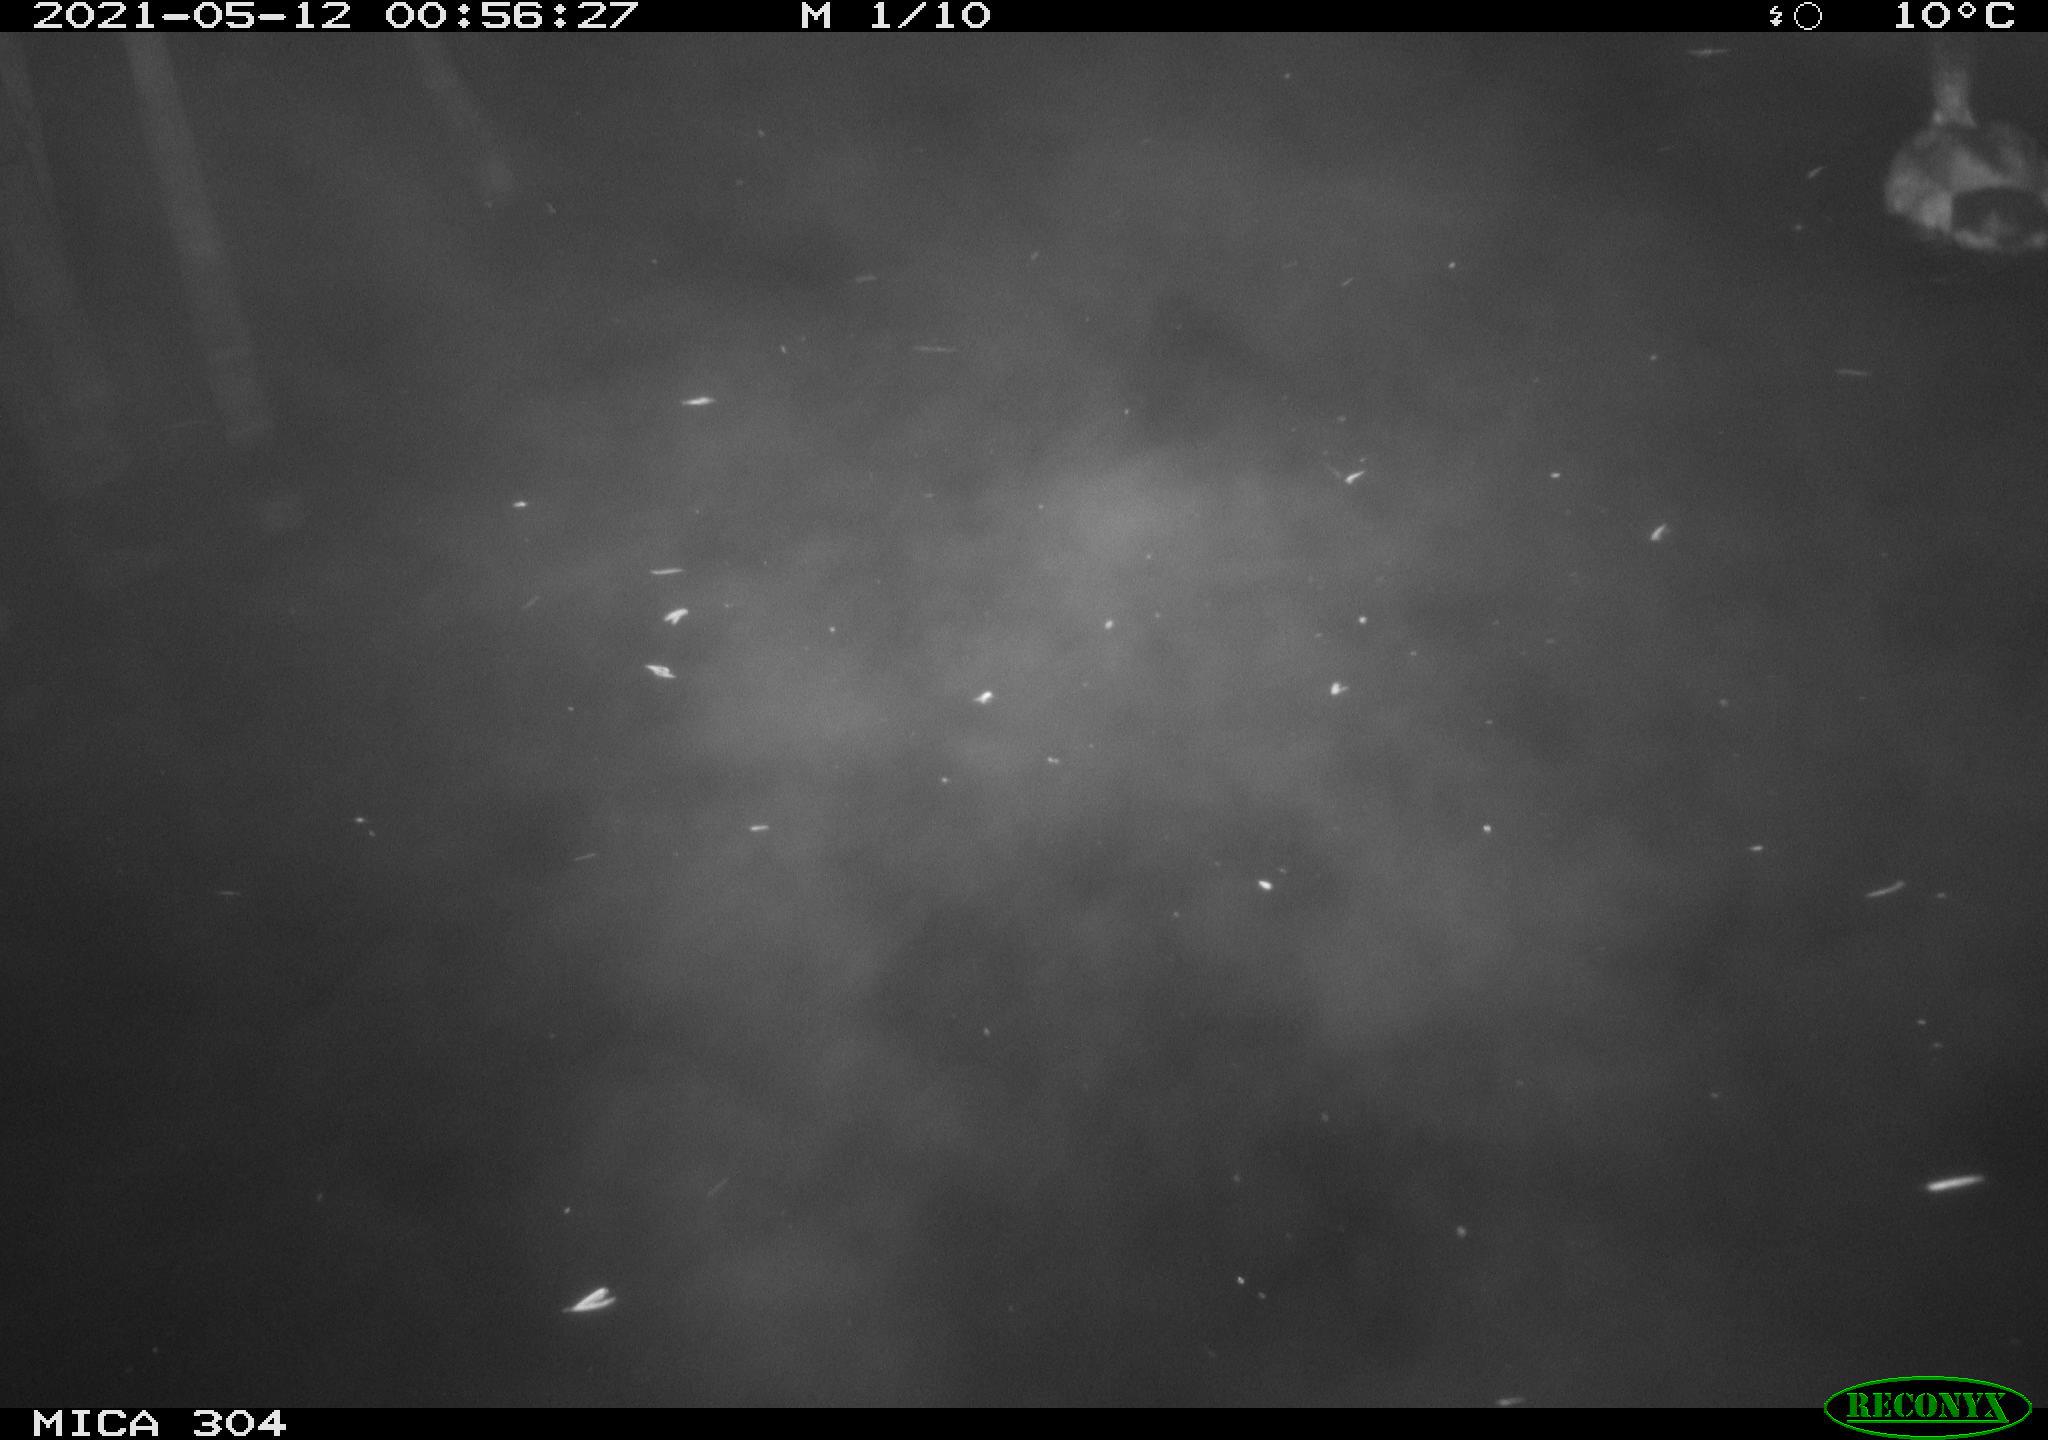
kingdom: Animalia
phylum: Chordata
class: Aves
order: Anseriformes
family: Anatidae
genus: Anas
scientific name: Anas platyrhynchos
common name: Mallard
